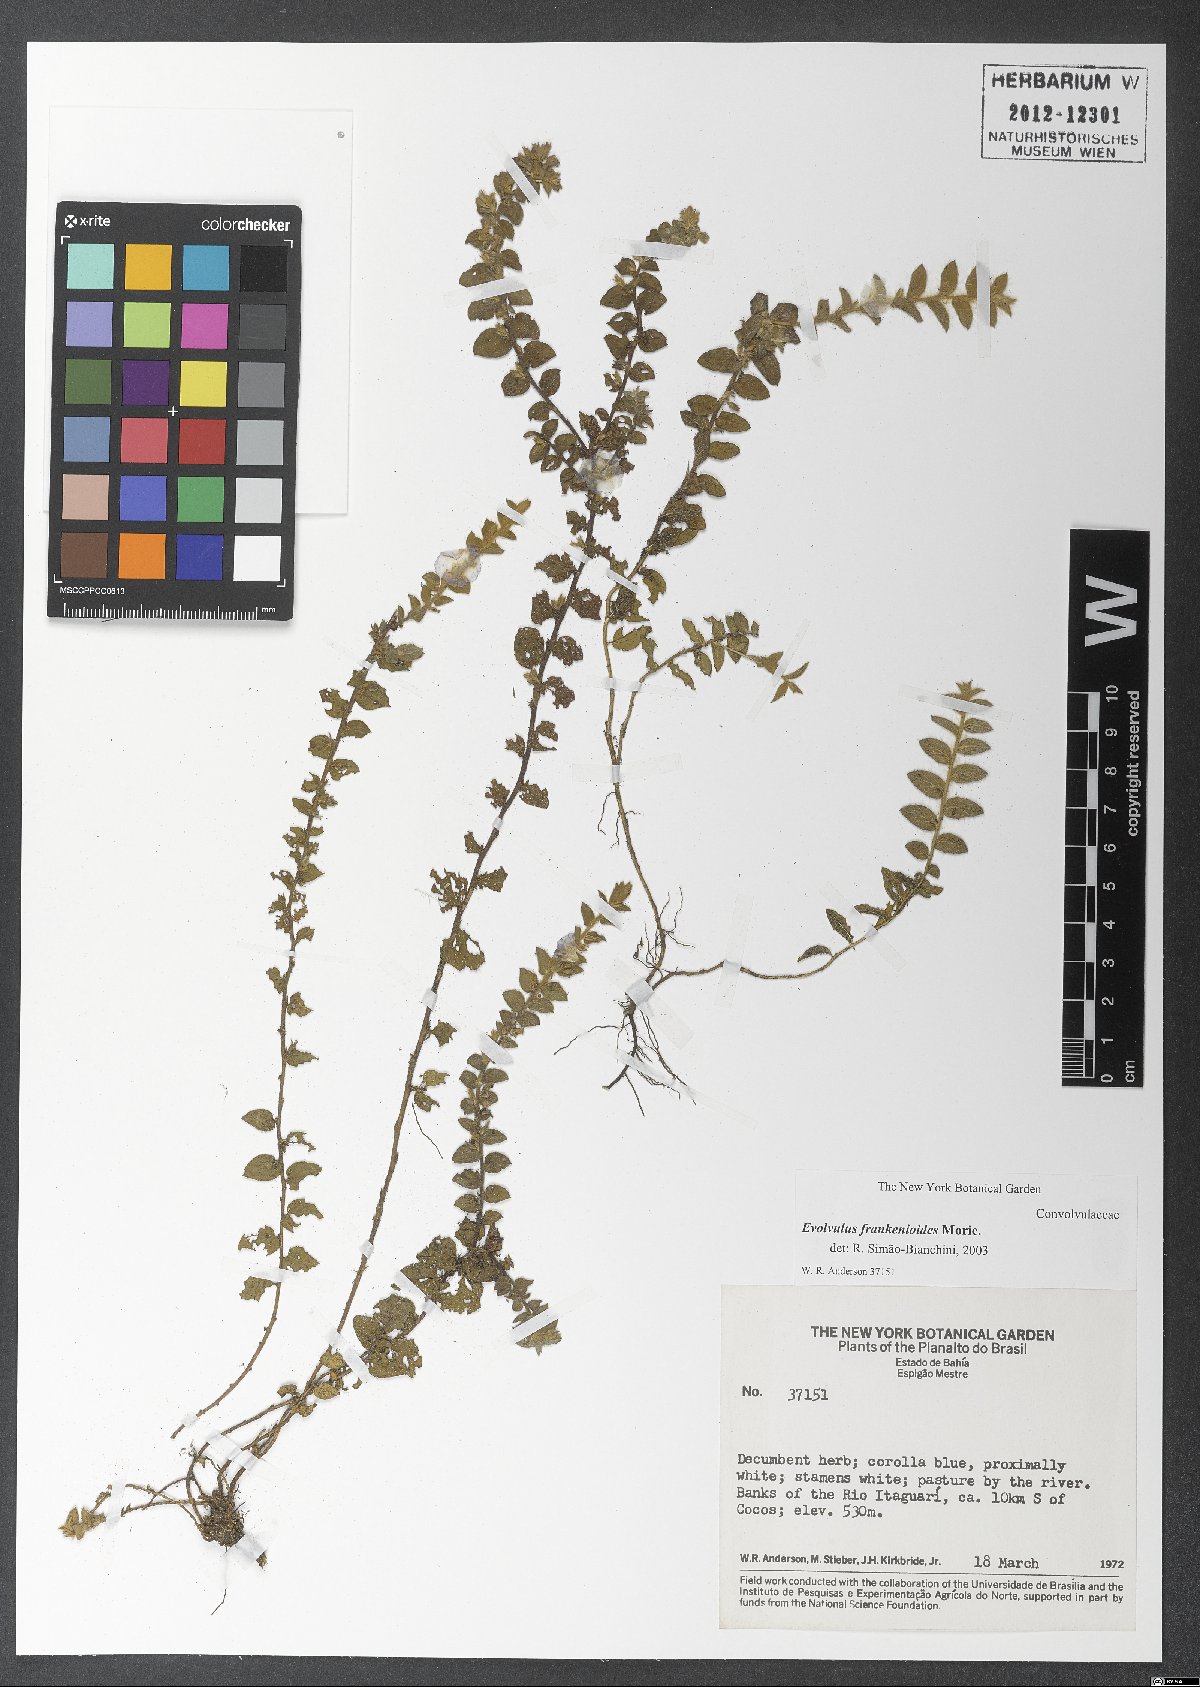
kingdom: Plantae
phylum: Tracheophyta
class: Magnoliopsida
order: Solanales
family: Convolvulaceae
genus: Evolvulus
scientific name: Evolvulus frankenioides
